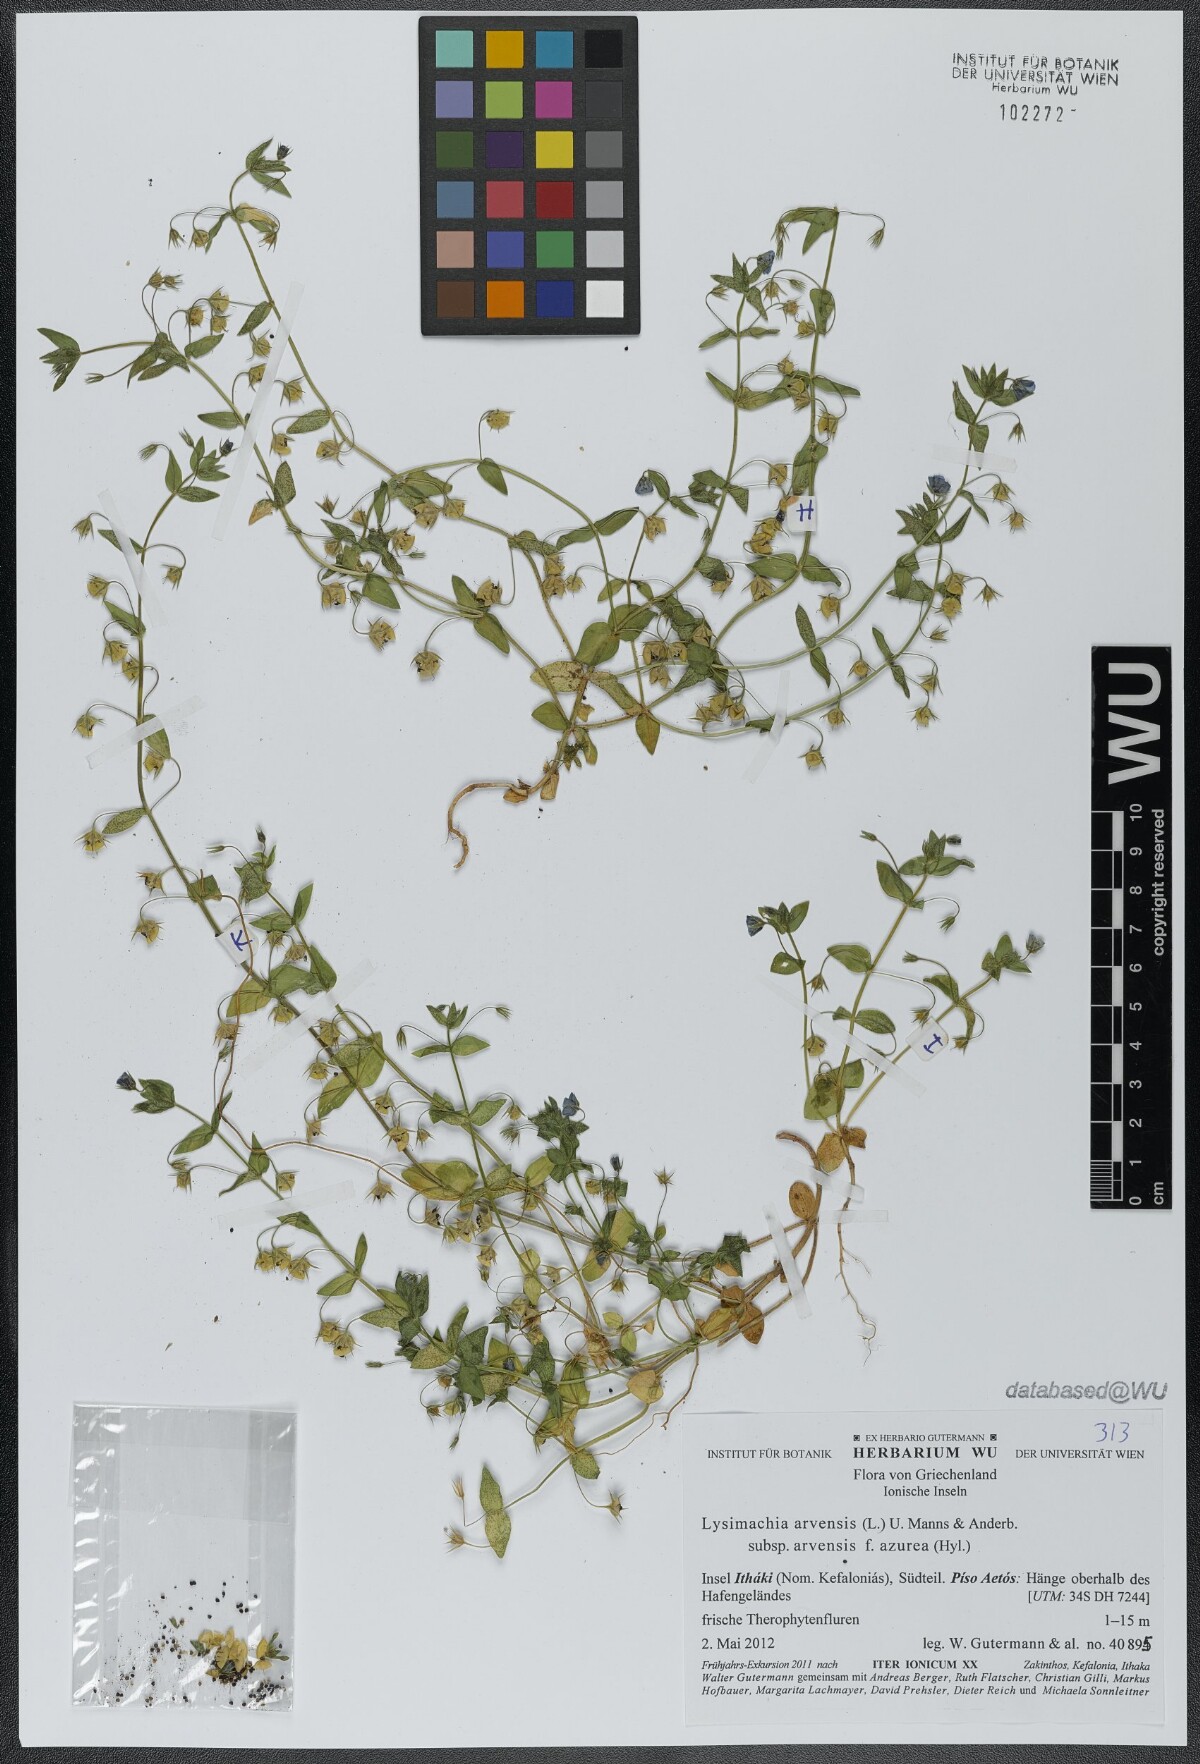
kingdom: Plantae
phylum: Tracheophyta
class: Magnoliopsida
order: Ericales
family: Primulaceae
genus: Lysimachia
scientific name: Lysimachia arvensis
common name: Scarlet pimpernel
